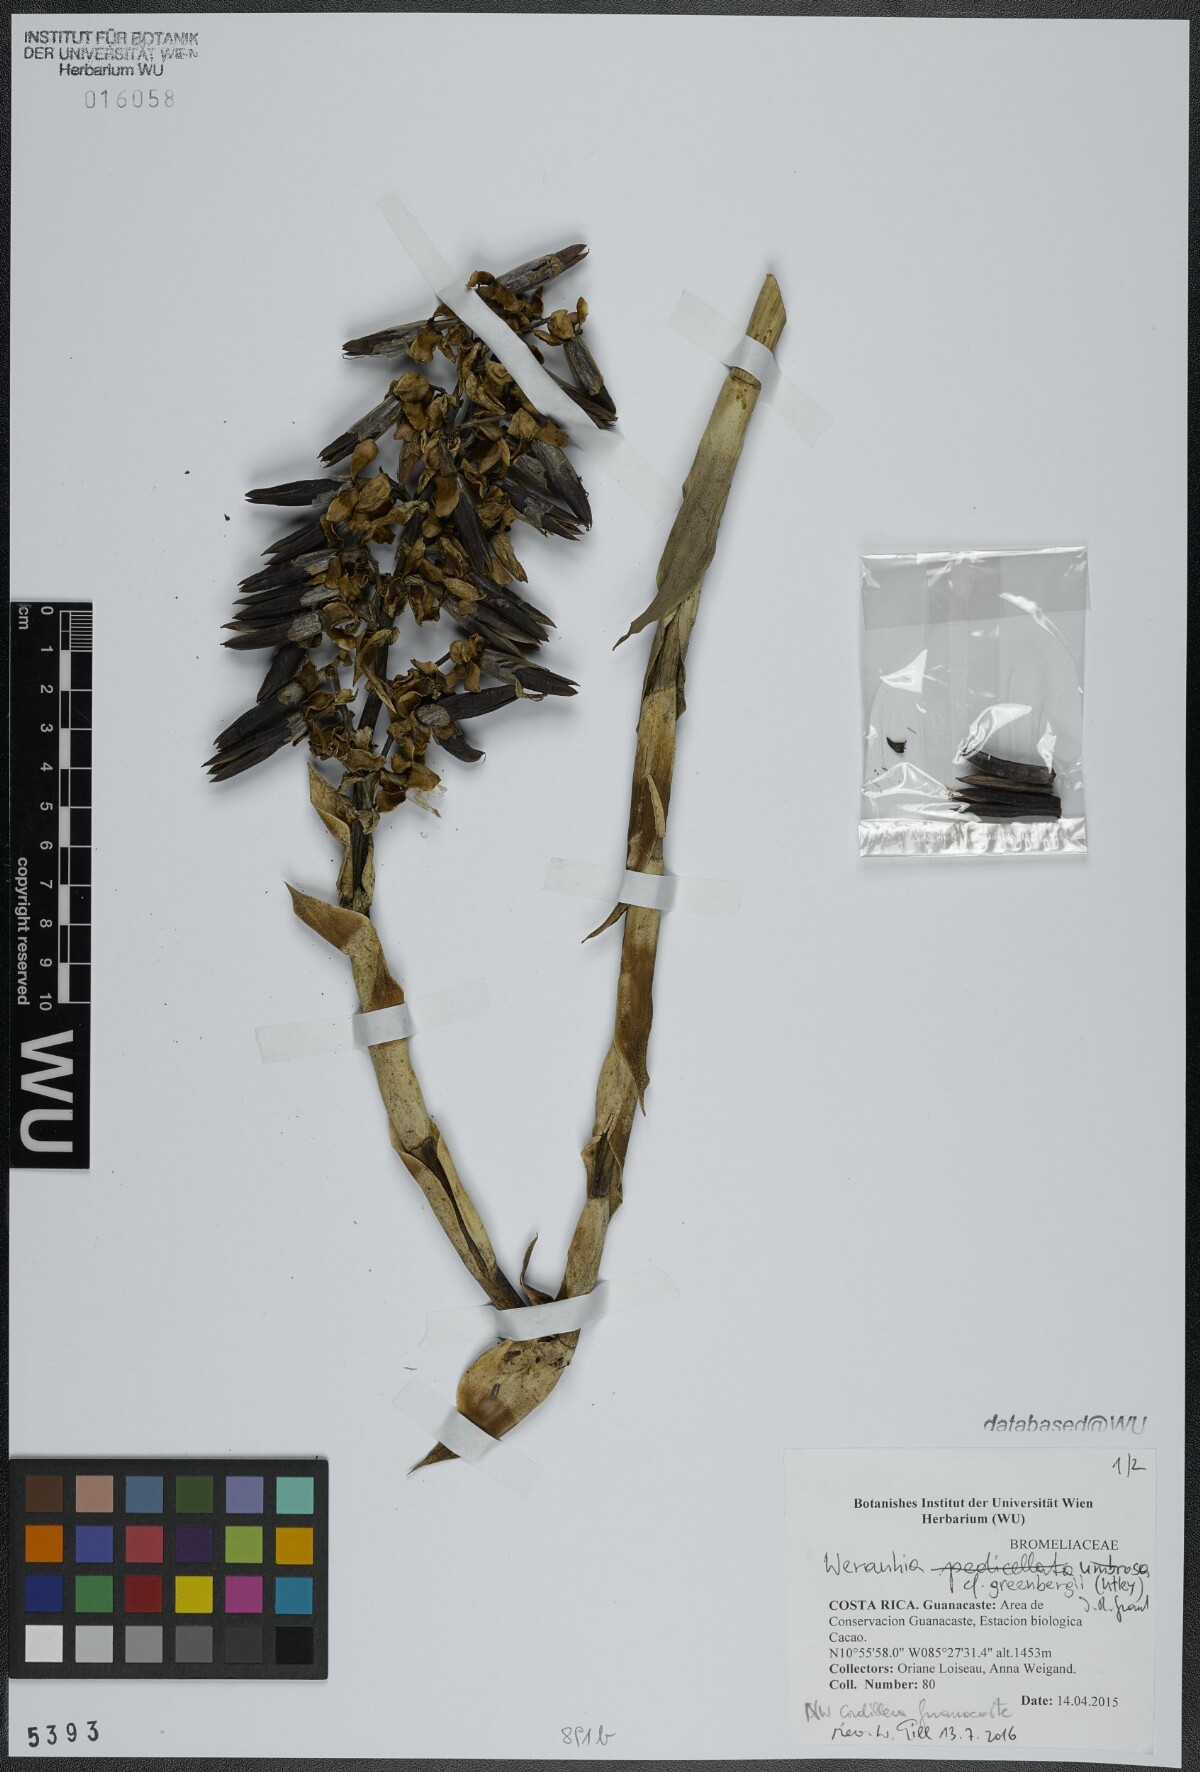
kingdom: Plantae
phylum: Tracheophyta
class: Liliopsida
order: Poales
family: Bromeliaceae
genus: Werauhia
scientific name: Werauhia patzeltii
